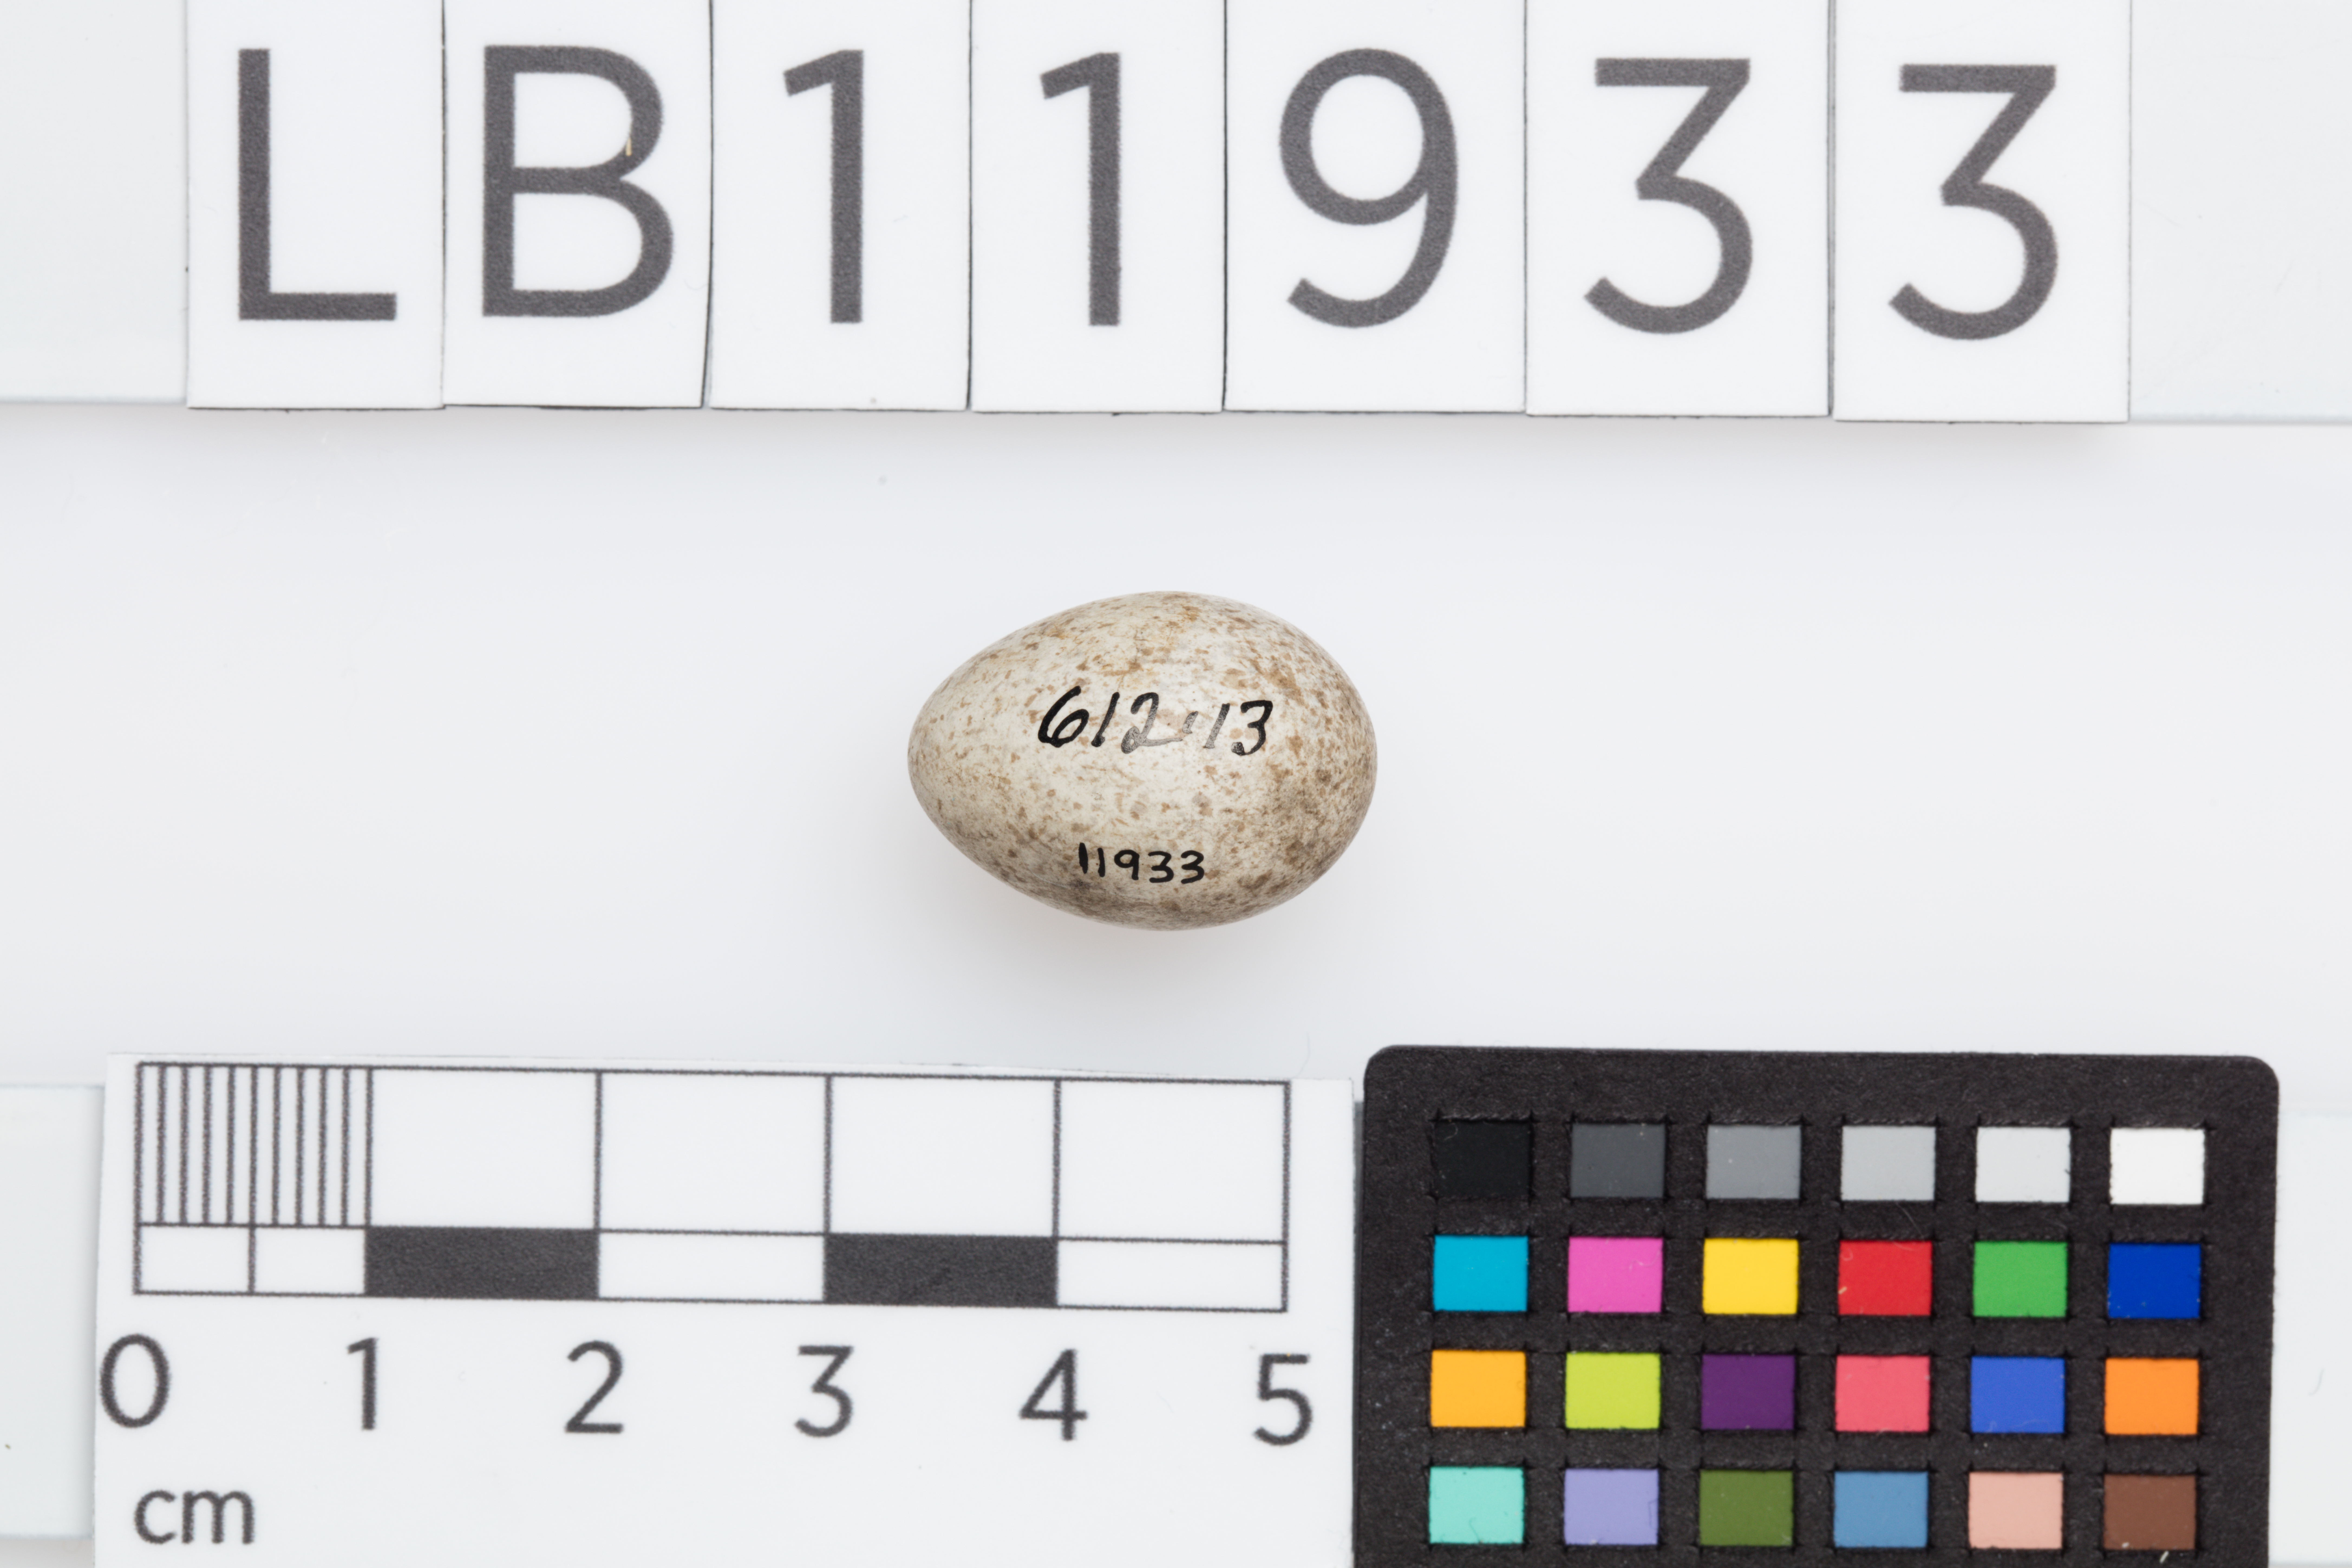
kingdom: Animalia
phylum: Chordata
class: Aves
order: Passeriformes
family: Motacillidae
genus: Motacilla
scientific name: Motacilla alba
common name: White wagtail
